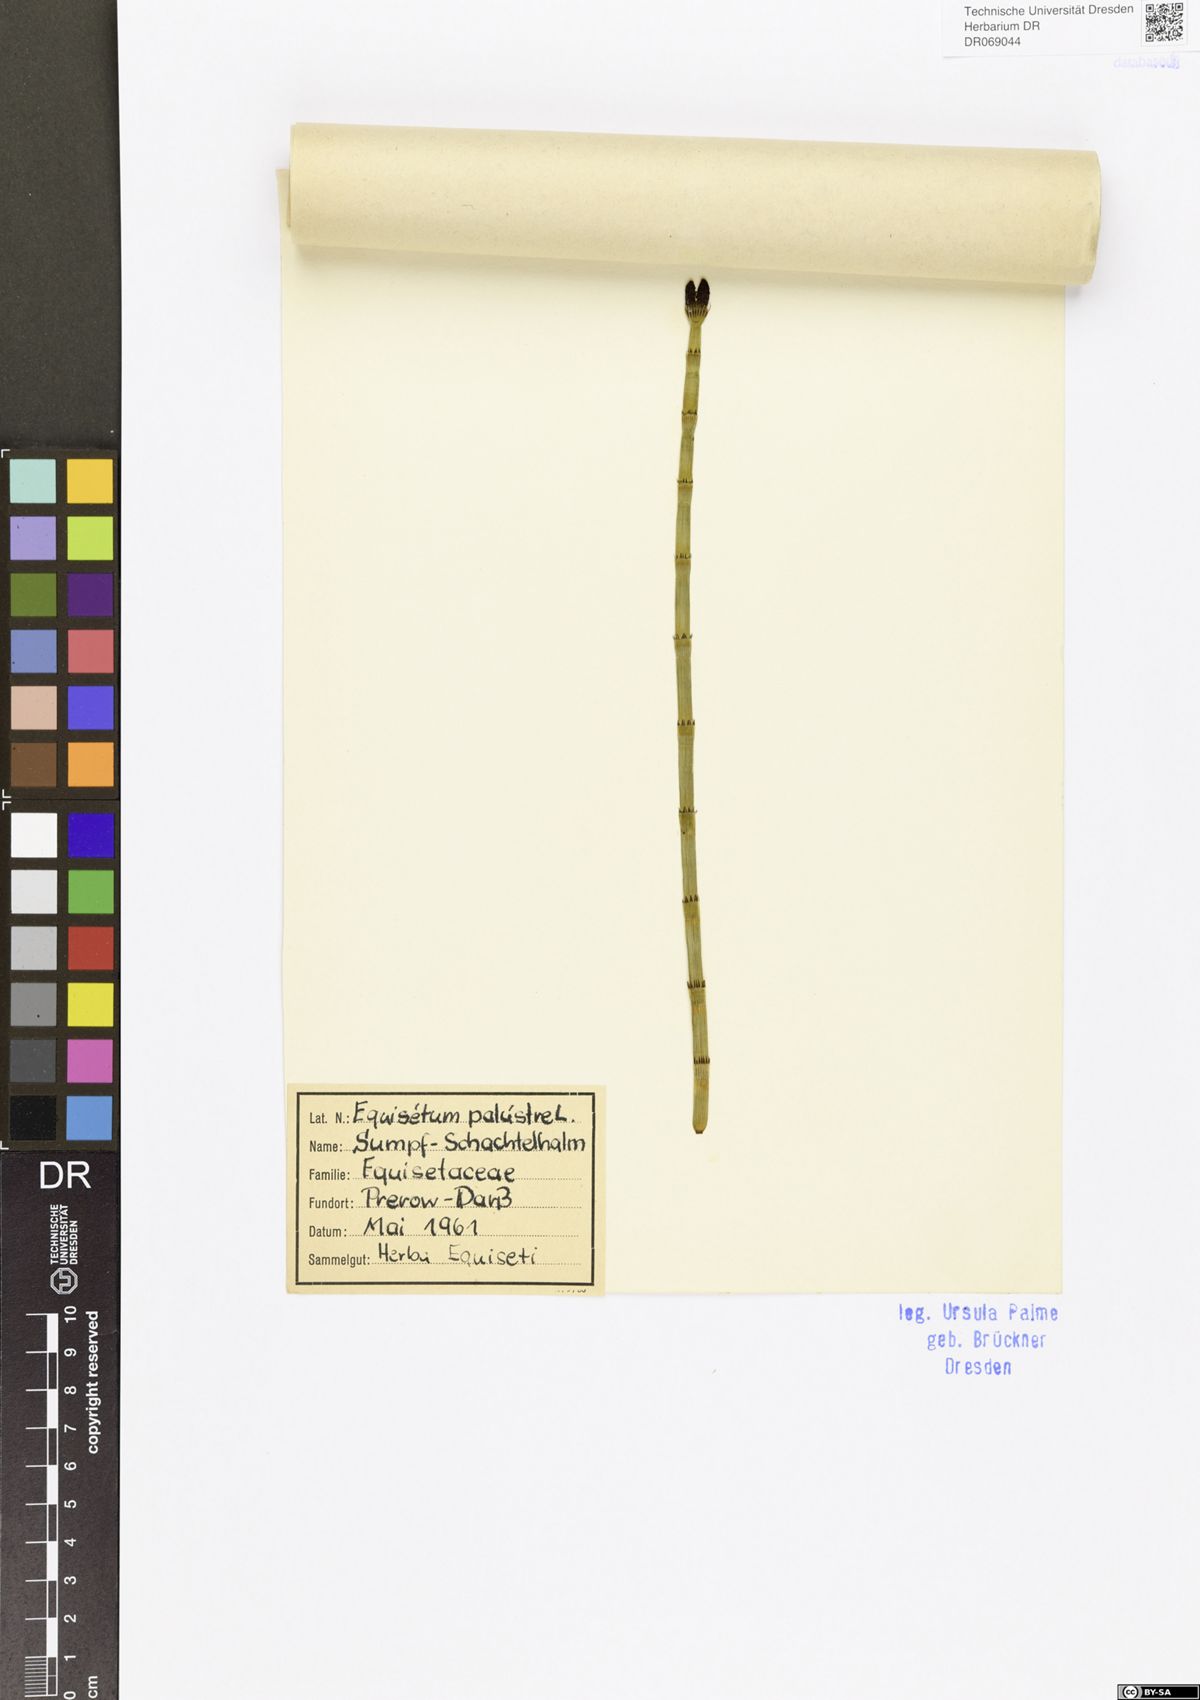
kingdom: Plantae
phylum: Tracheophyta
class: Polypodiopsida
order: Equisetales
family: Equisetaceae
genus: Equisetum
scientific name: Equisetum palustre
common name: Marsh horsetail
